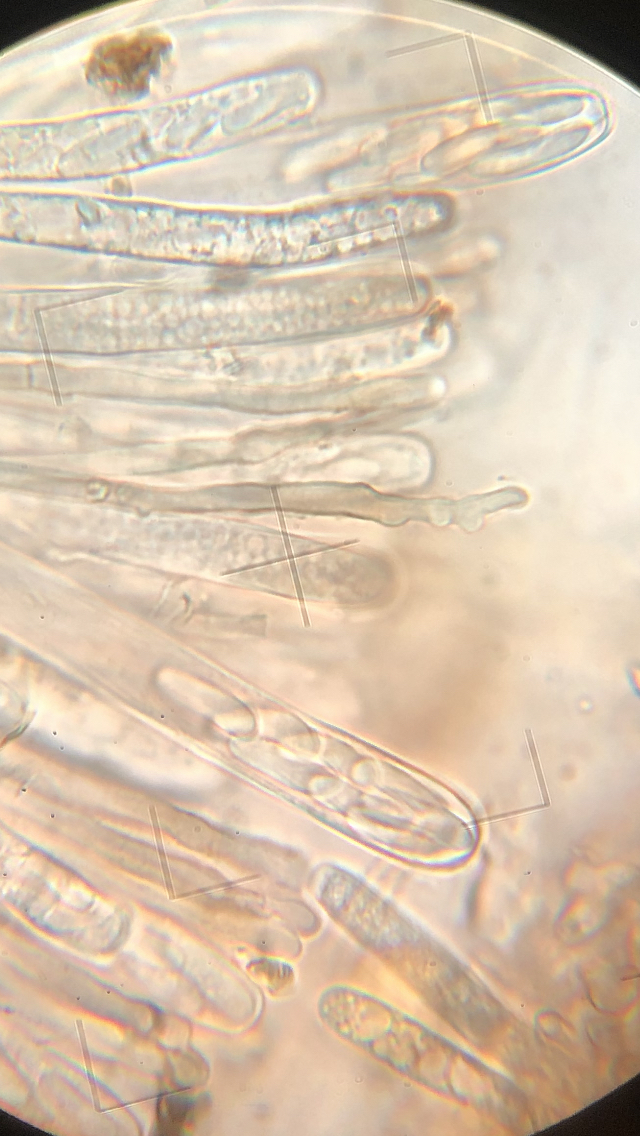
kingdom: Fungi
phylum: Ascomycota
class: Leotiomycetes
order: Helotiales
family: Sclerotiniaceae
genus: Sclerencoelia
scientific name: Sclerencoelia fascicularis
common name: poppel-læderskive
